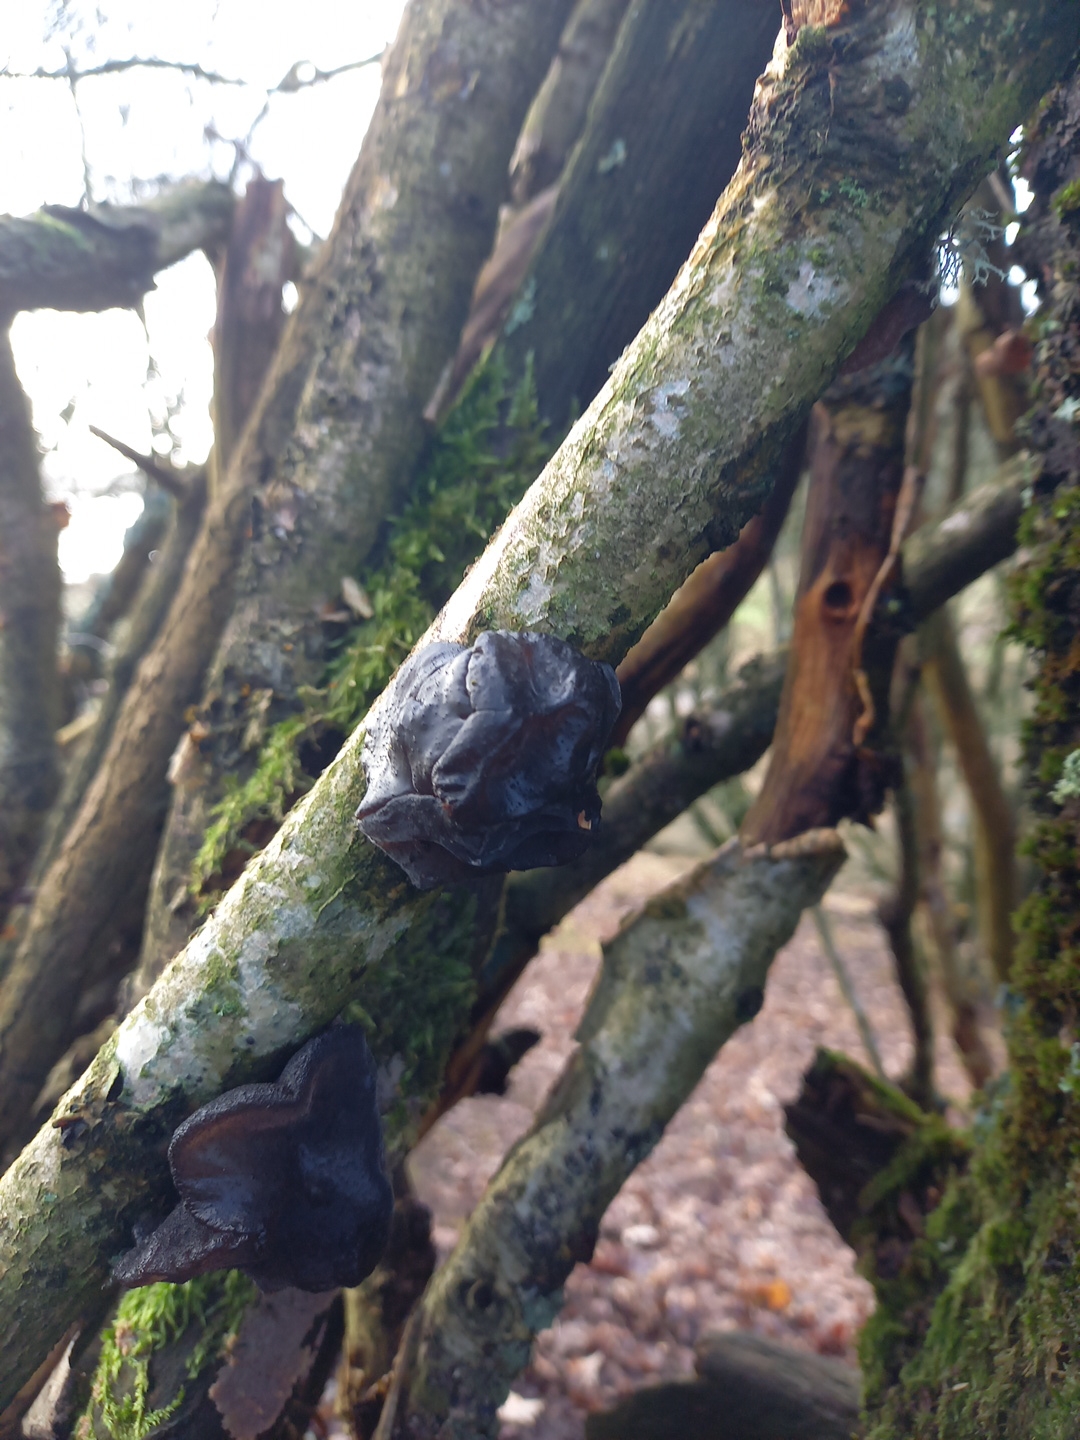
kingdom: Fungi
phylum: Basidiomycota
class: Agaricomycetes
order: Auriculariales
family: Auriculariaceae
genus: Exidia
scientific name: Exidia glandulosa
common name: ege-bævretop
